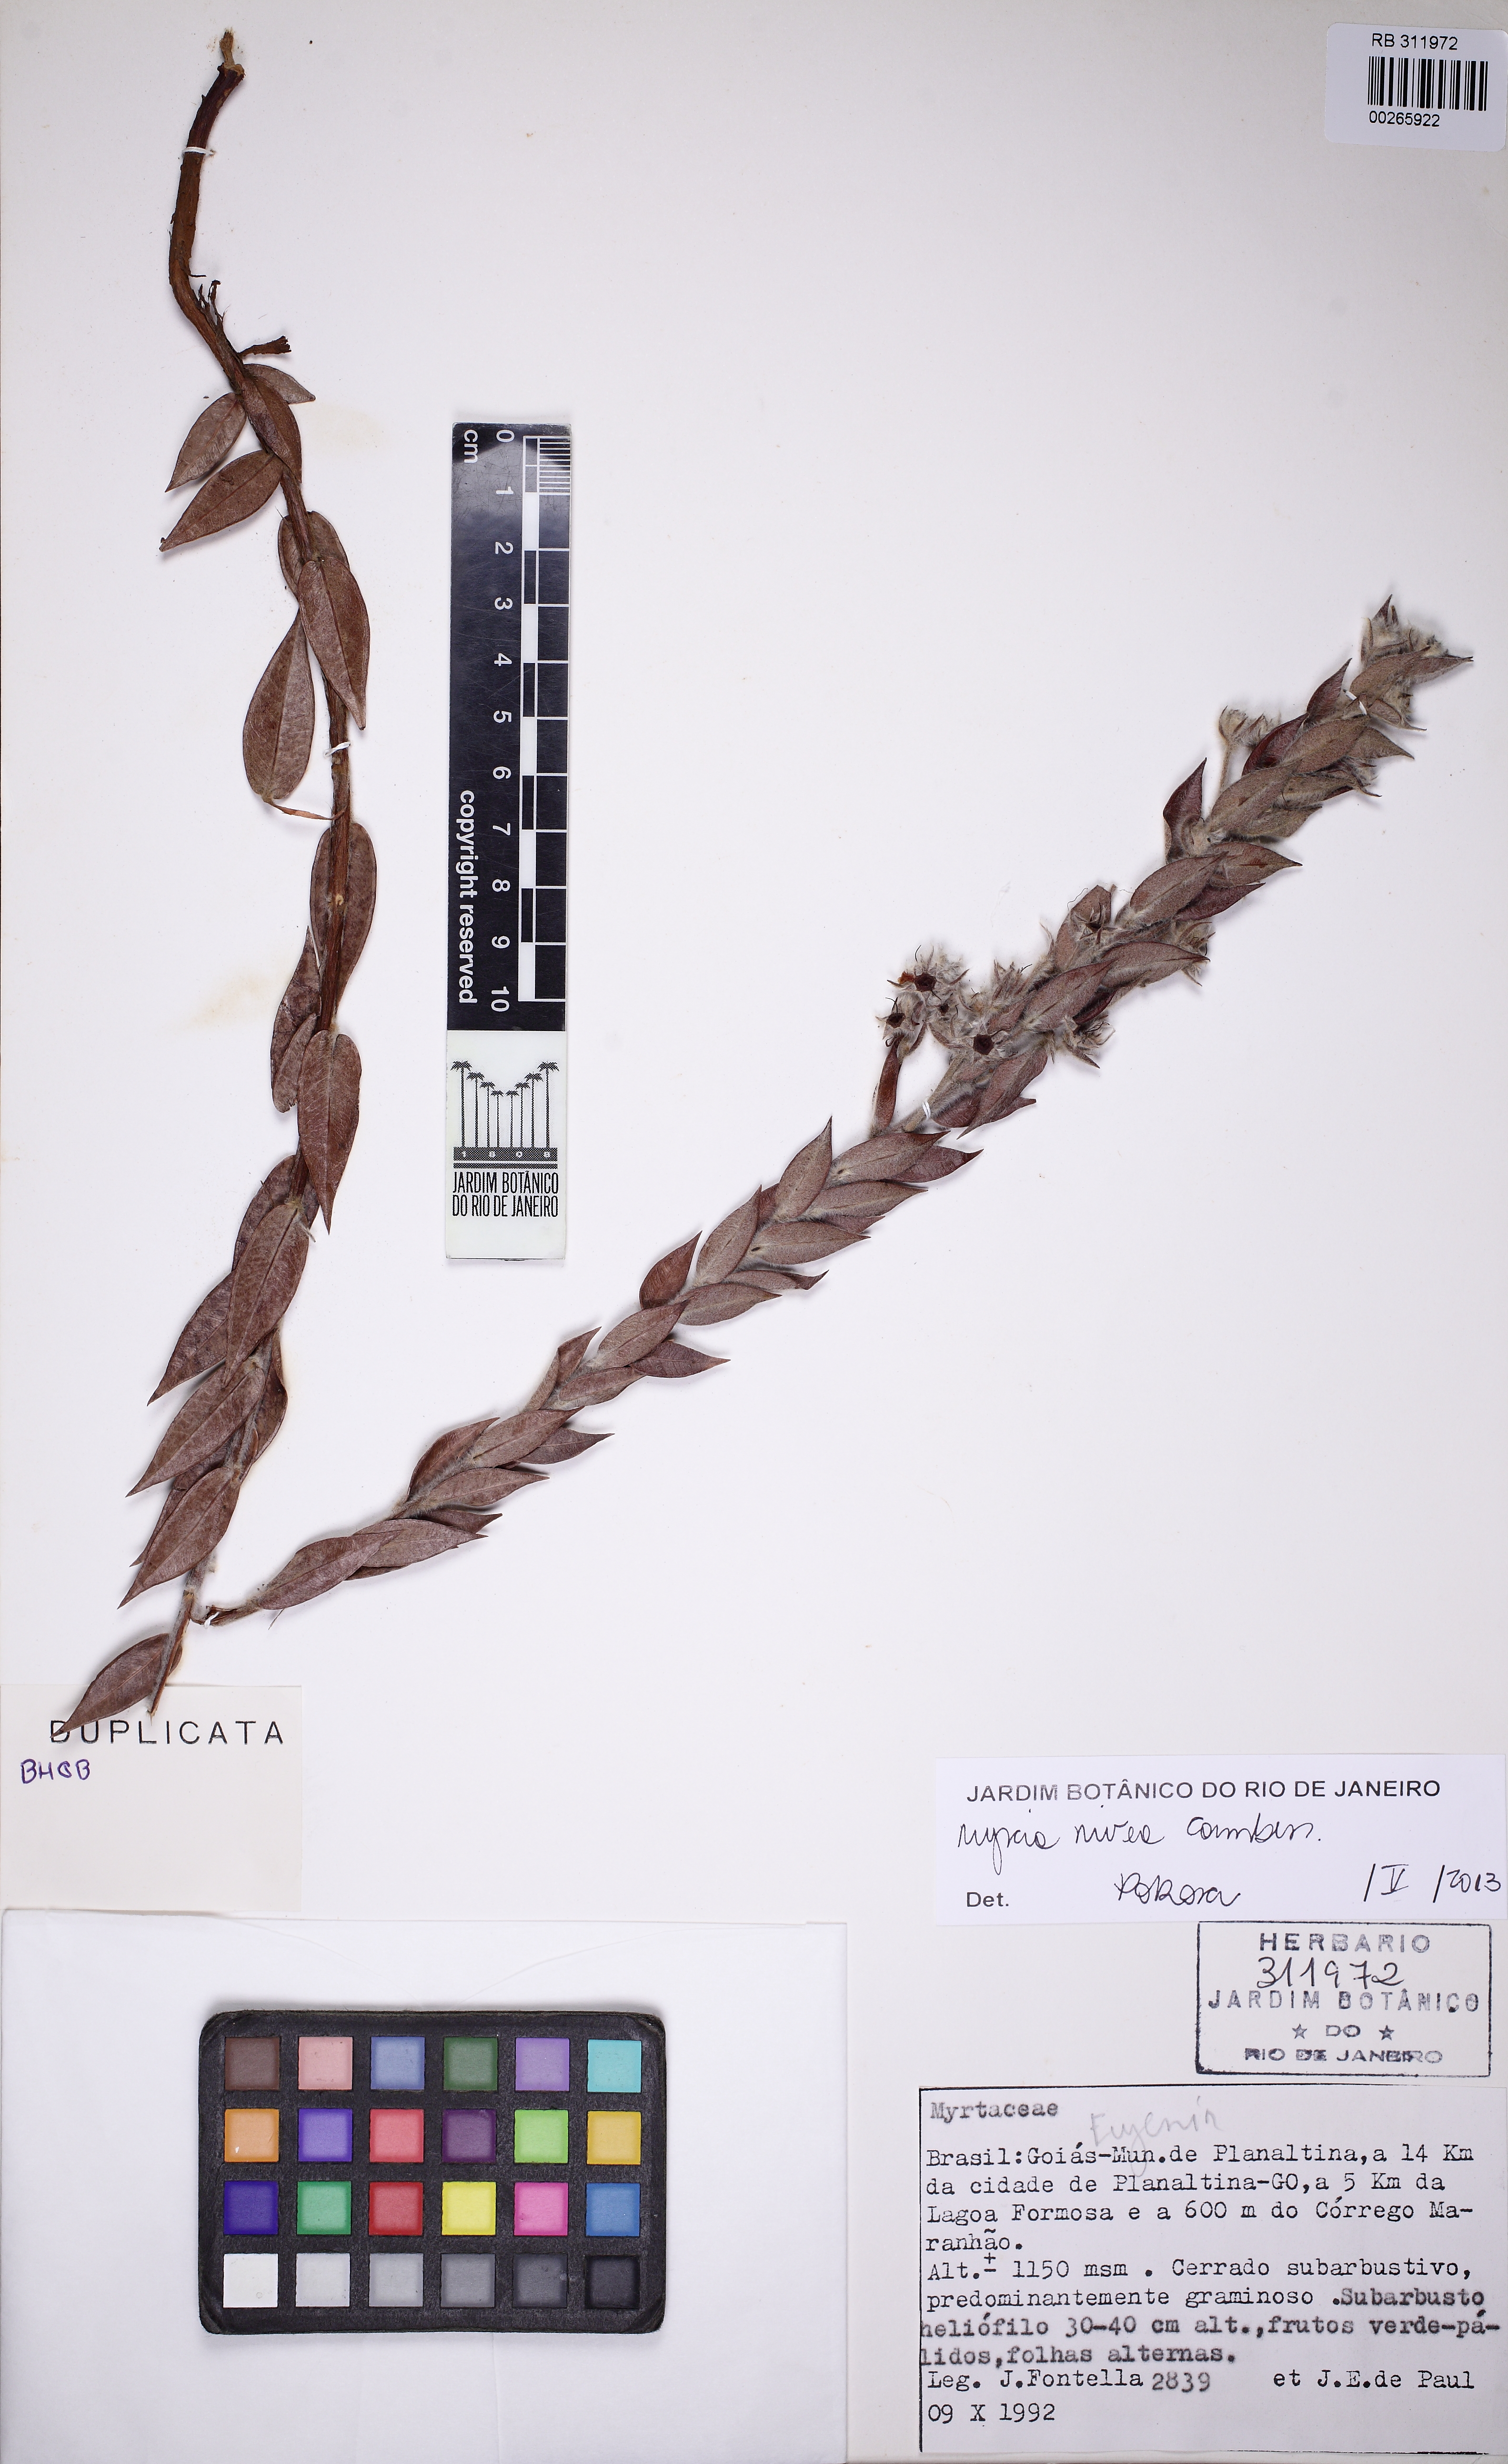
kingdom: Plantae
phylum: Tracheophyta
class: Magnoliopsida
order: Myrtales
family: Myrtaceae
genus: Myrcia
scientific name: Myrcia nivea
